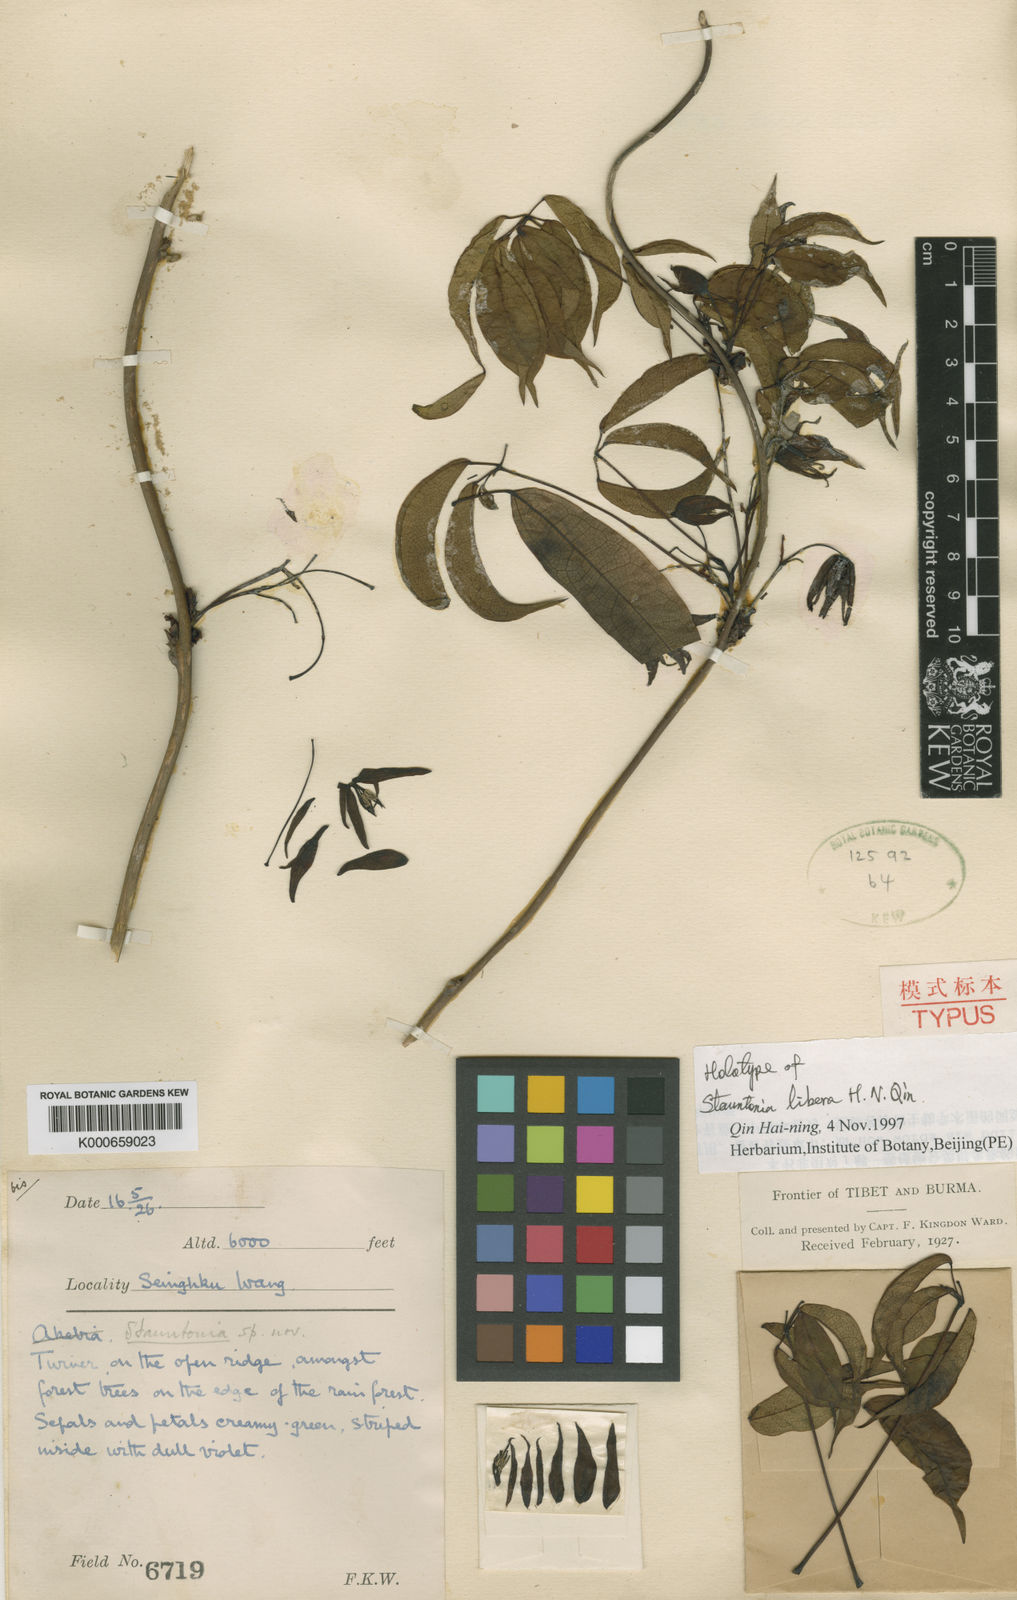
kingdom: Plantae
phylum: Tracheophyta
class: Magnoliopsida
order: Ranunculales
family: Lardizabalaceae
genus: Stauntonia
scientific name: Stauntonia libera
